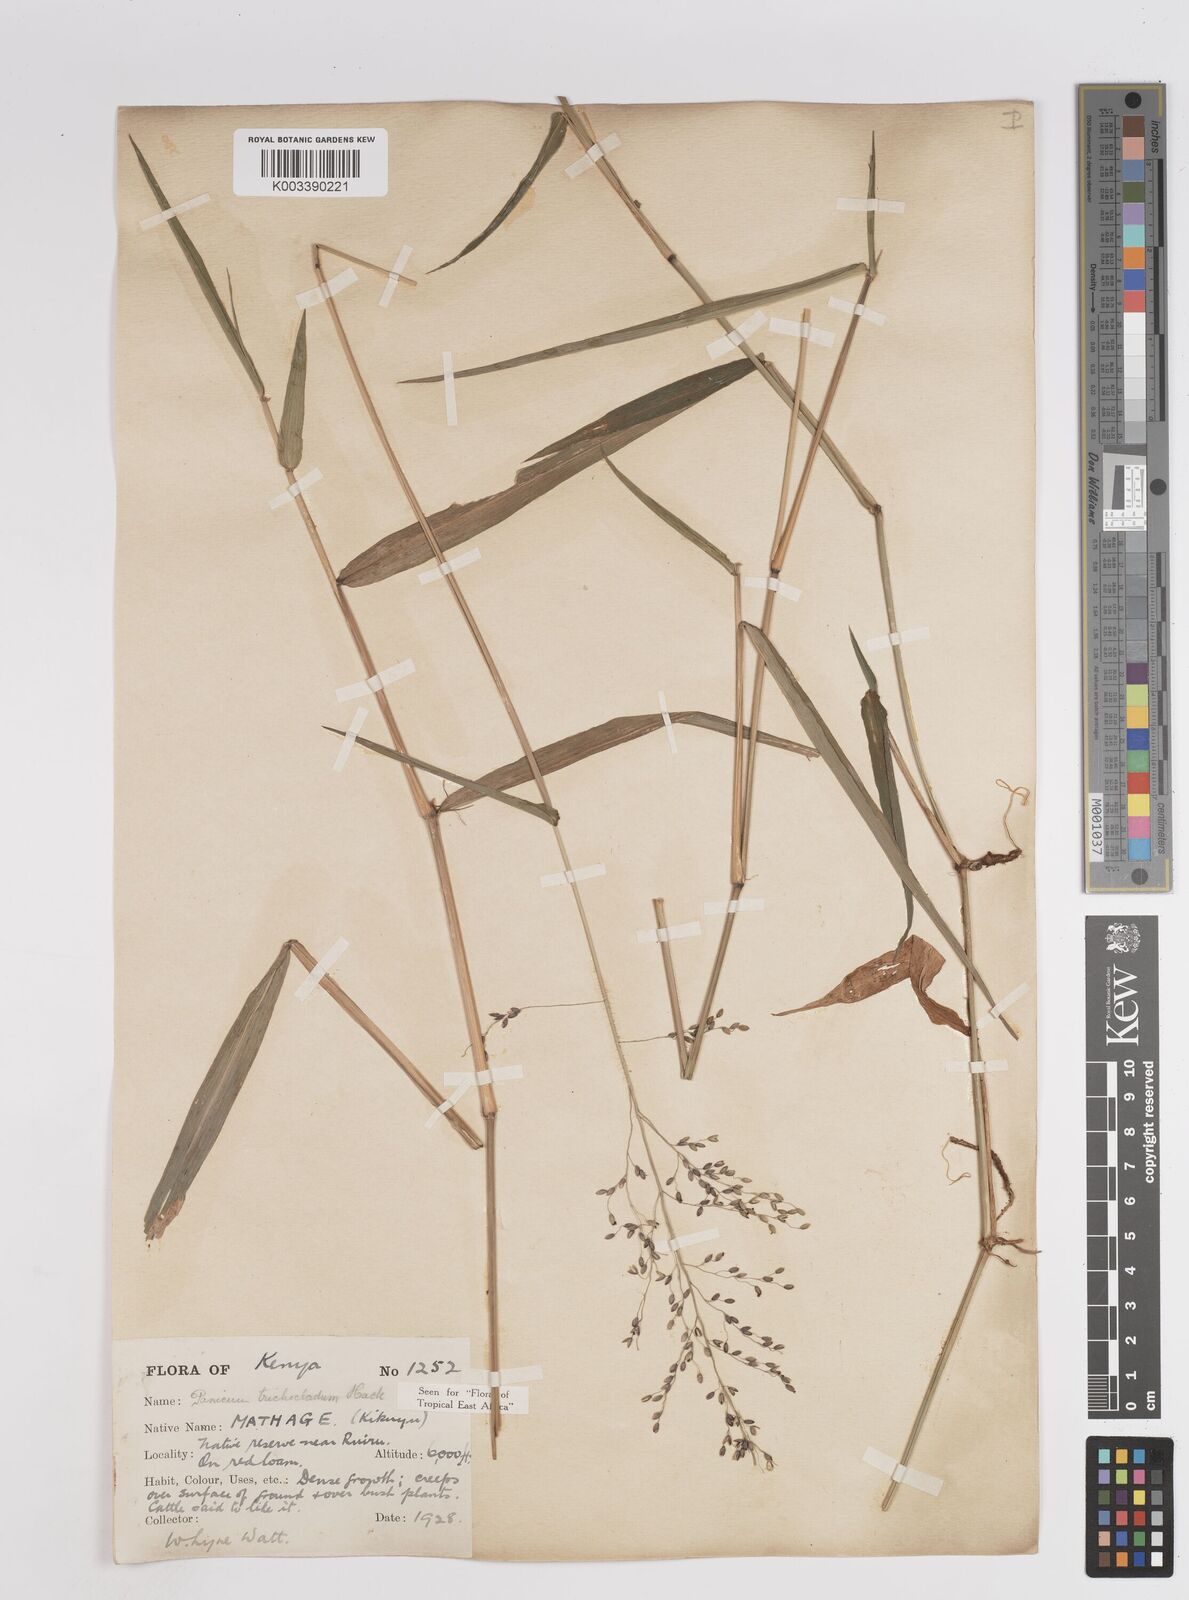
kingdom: Plantae
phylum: Tracheophyta
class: Liliopsida
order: Poales
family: Poaceae
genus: Panicum
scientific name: Panicum trichocladum
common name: Donkey grass
